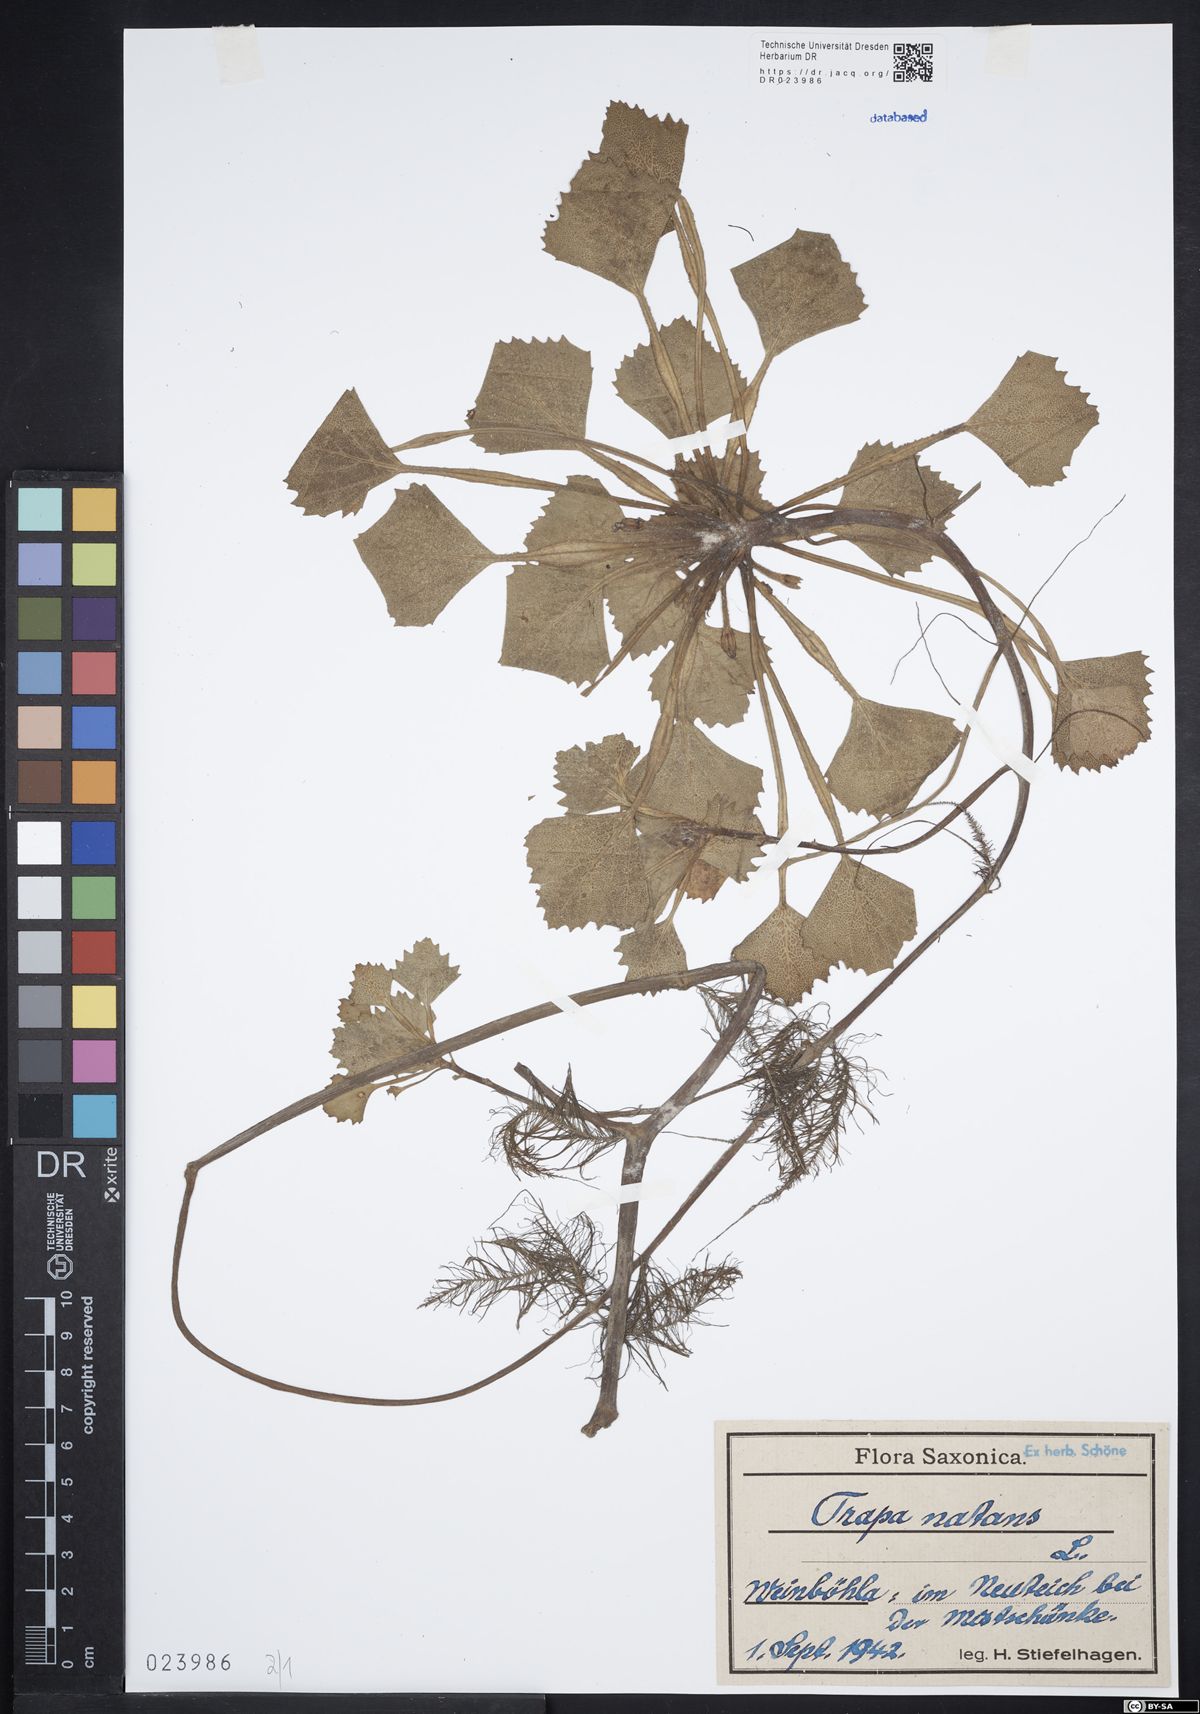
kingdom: Plantae
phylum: Tracheophyta
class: Magnoliopsida
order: Myrtales
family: Lythraceae
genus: Trapa
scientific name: Trapa natans
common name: Water chestnut
